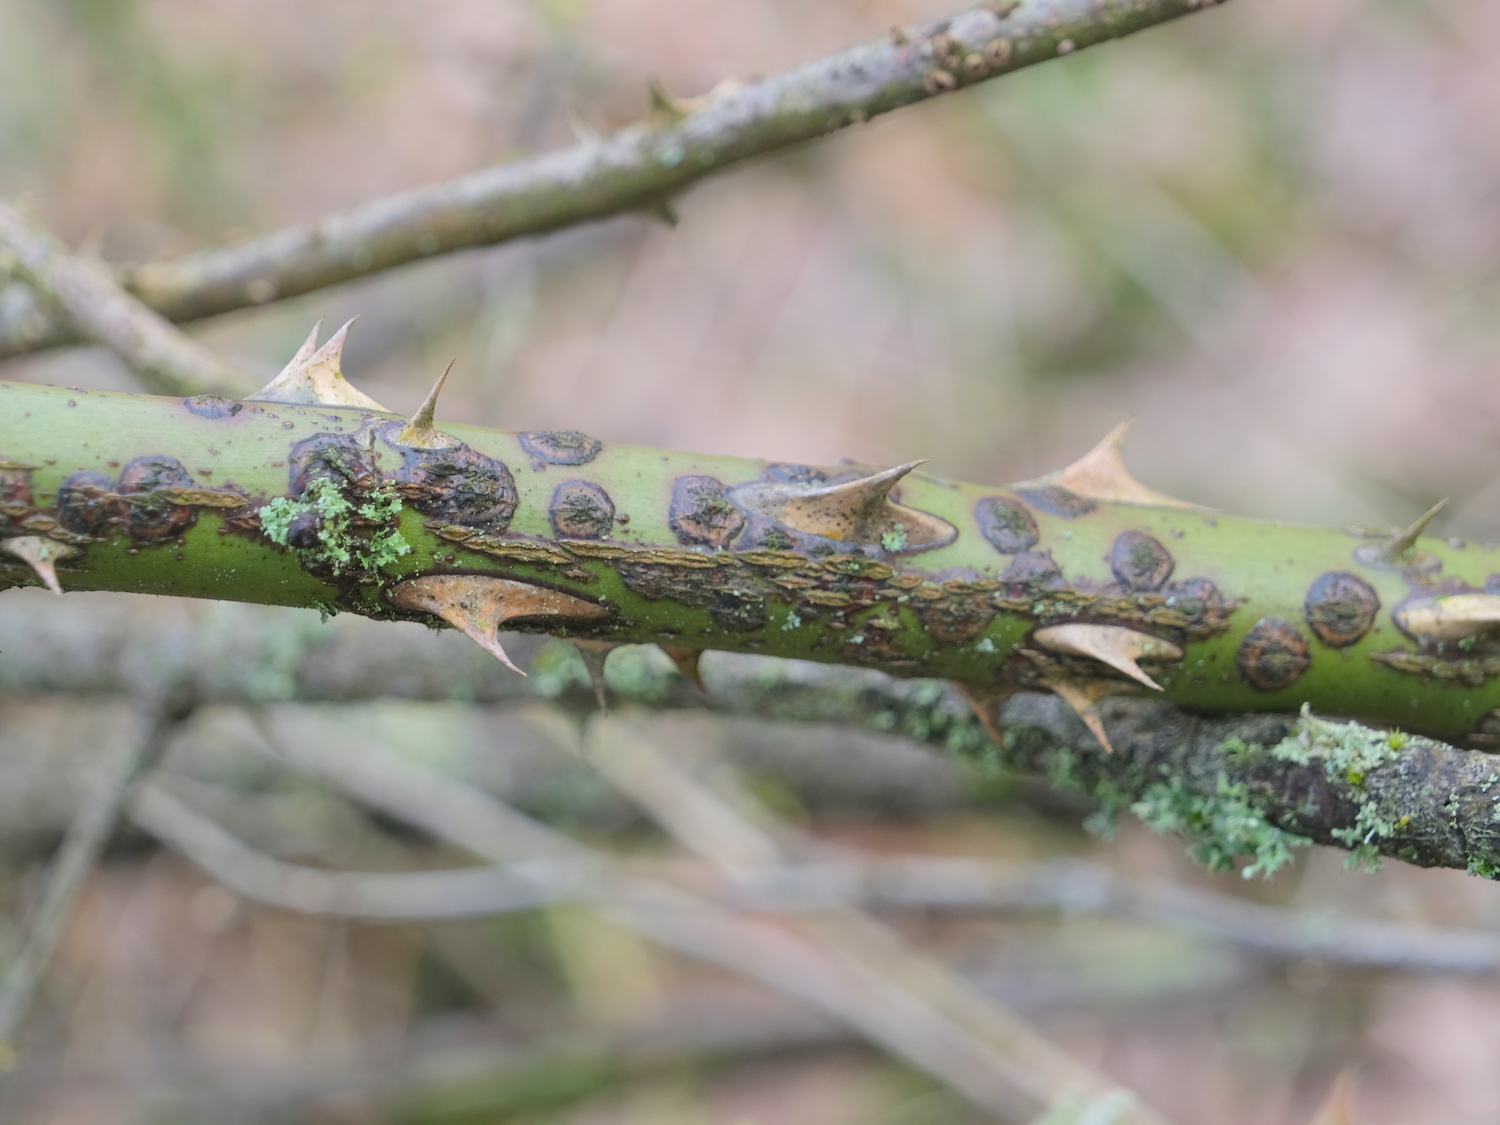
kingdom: Fungi
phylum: Ascomycota
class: Dothideomycetes
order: Botryosphaeriales
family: Botryosphaeriaceae
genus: Botryosphaeria
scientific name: Botryosphaeria dothidea
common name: Asteromyia gall midge fungus
